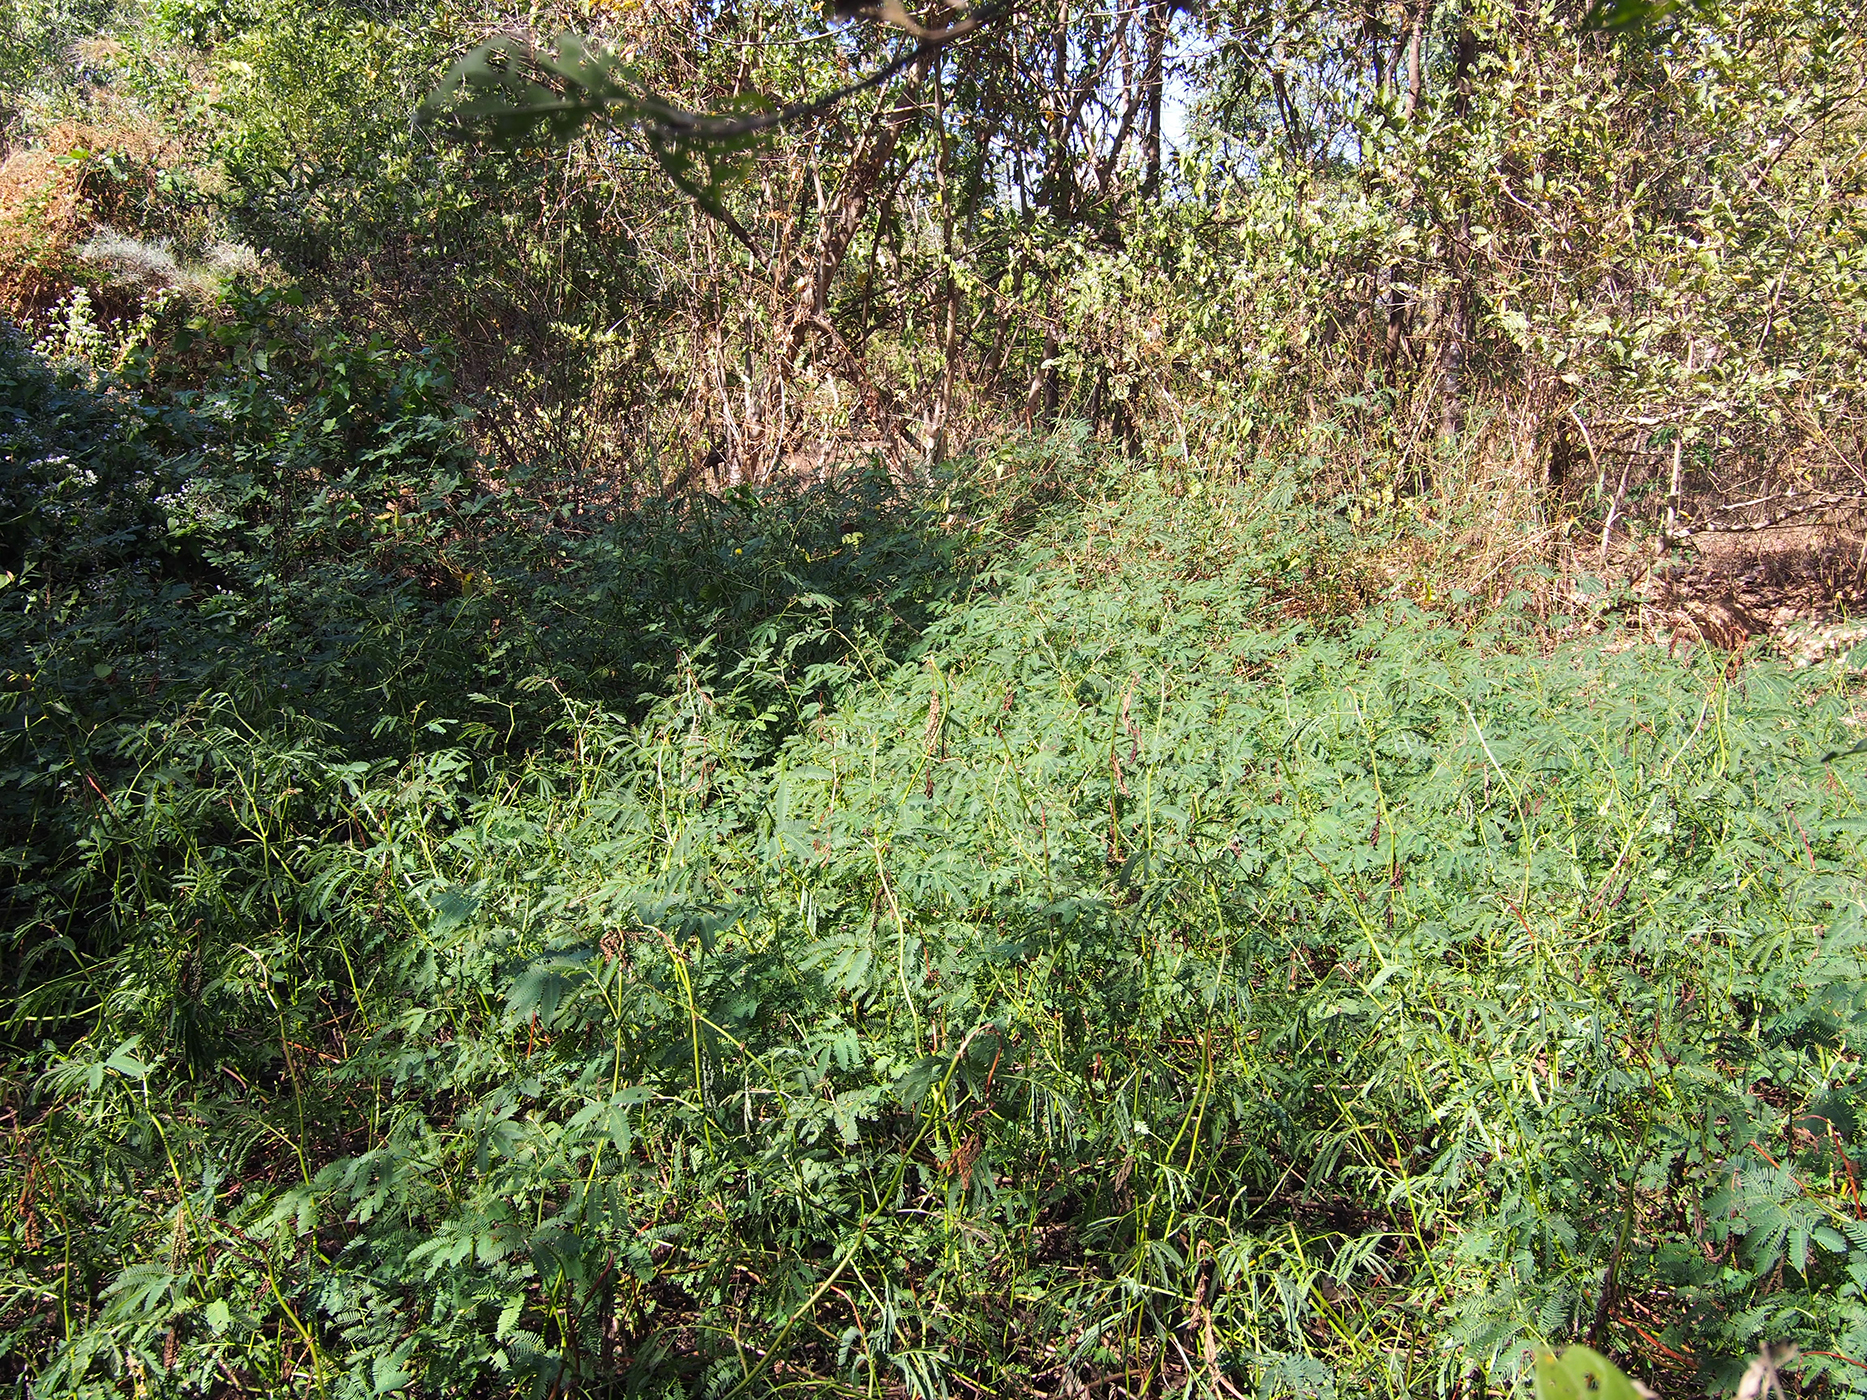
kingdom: Plantae
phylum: Tracheophyta
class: Magnoliopsida
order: Fabales
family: Fabaceae
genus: Neptunia
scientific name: Neptunia plena
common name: Dead and awake
